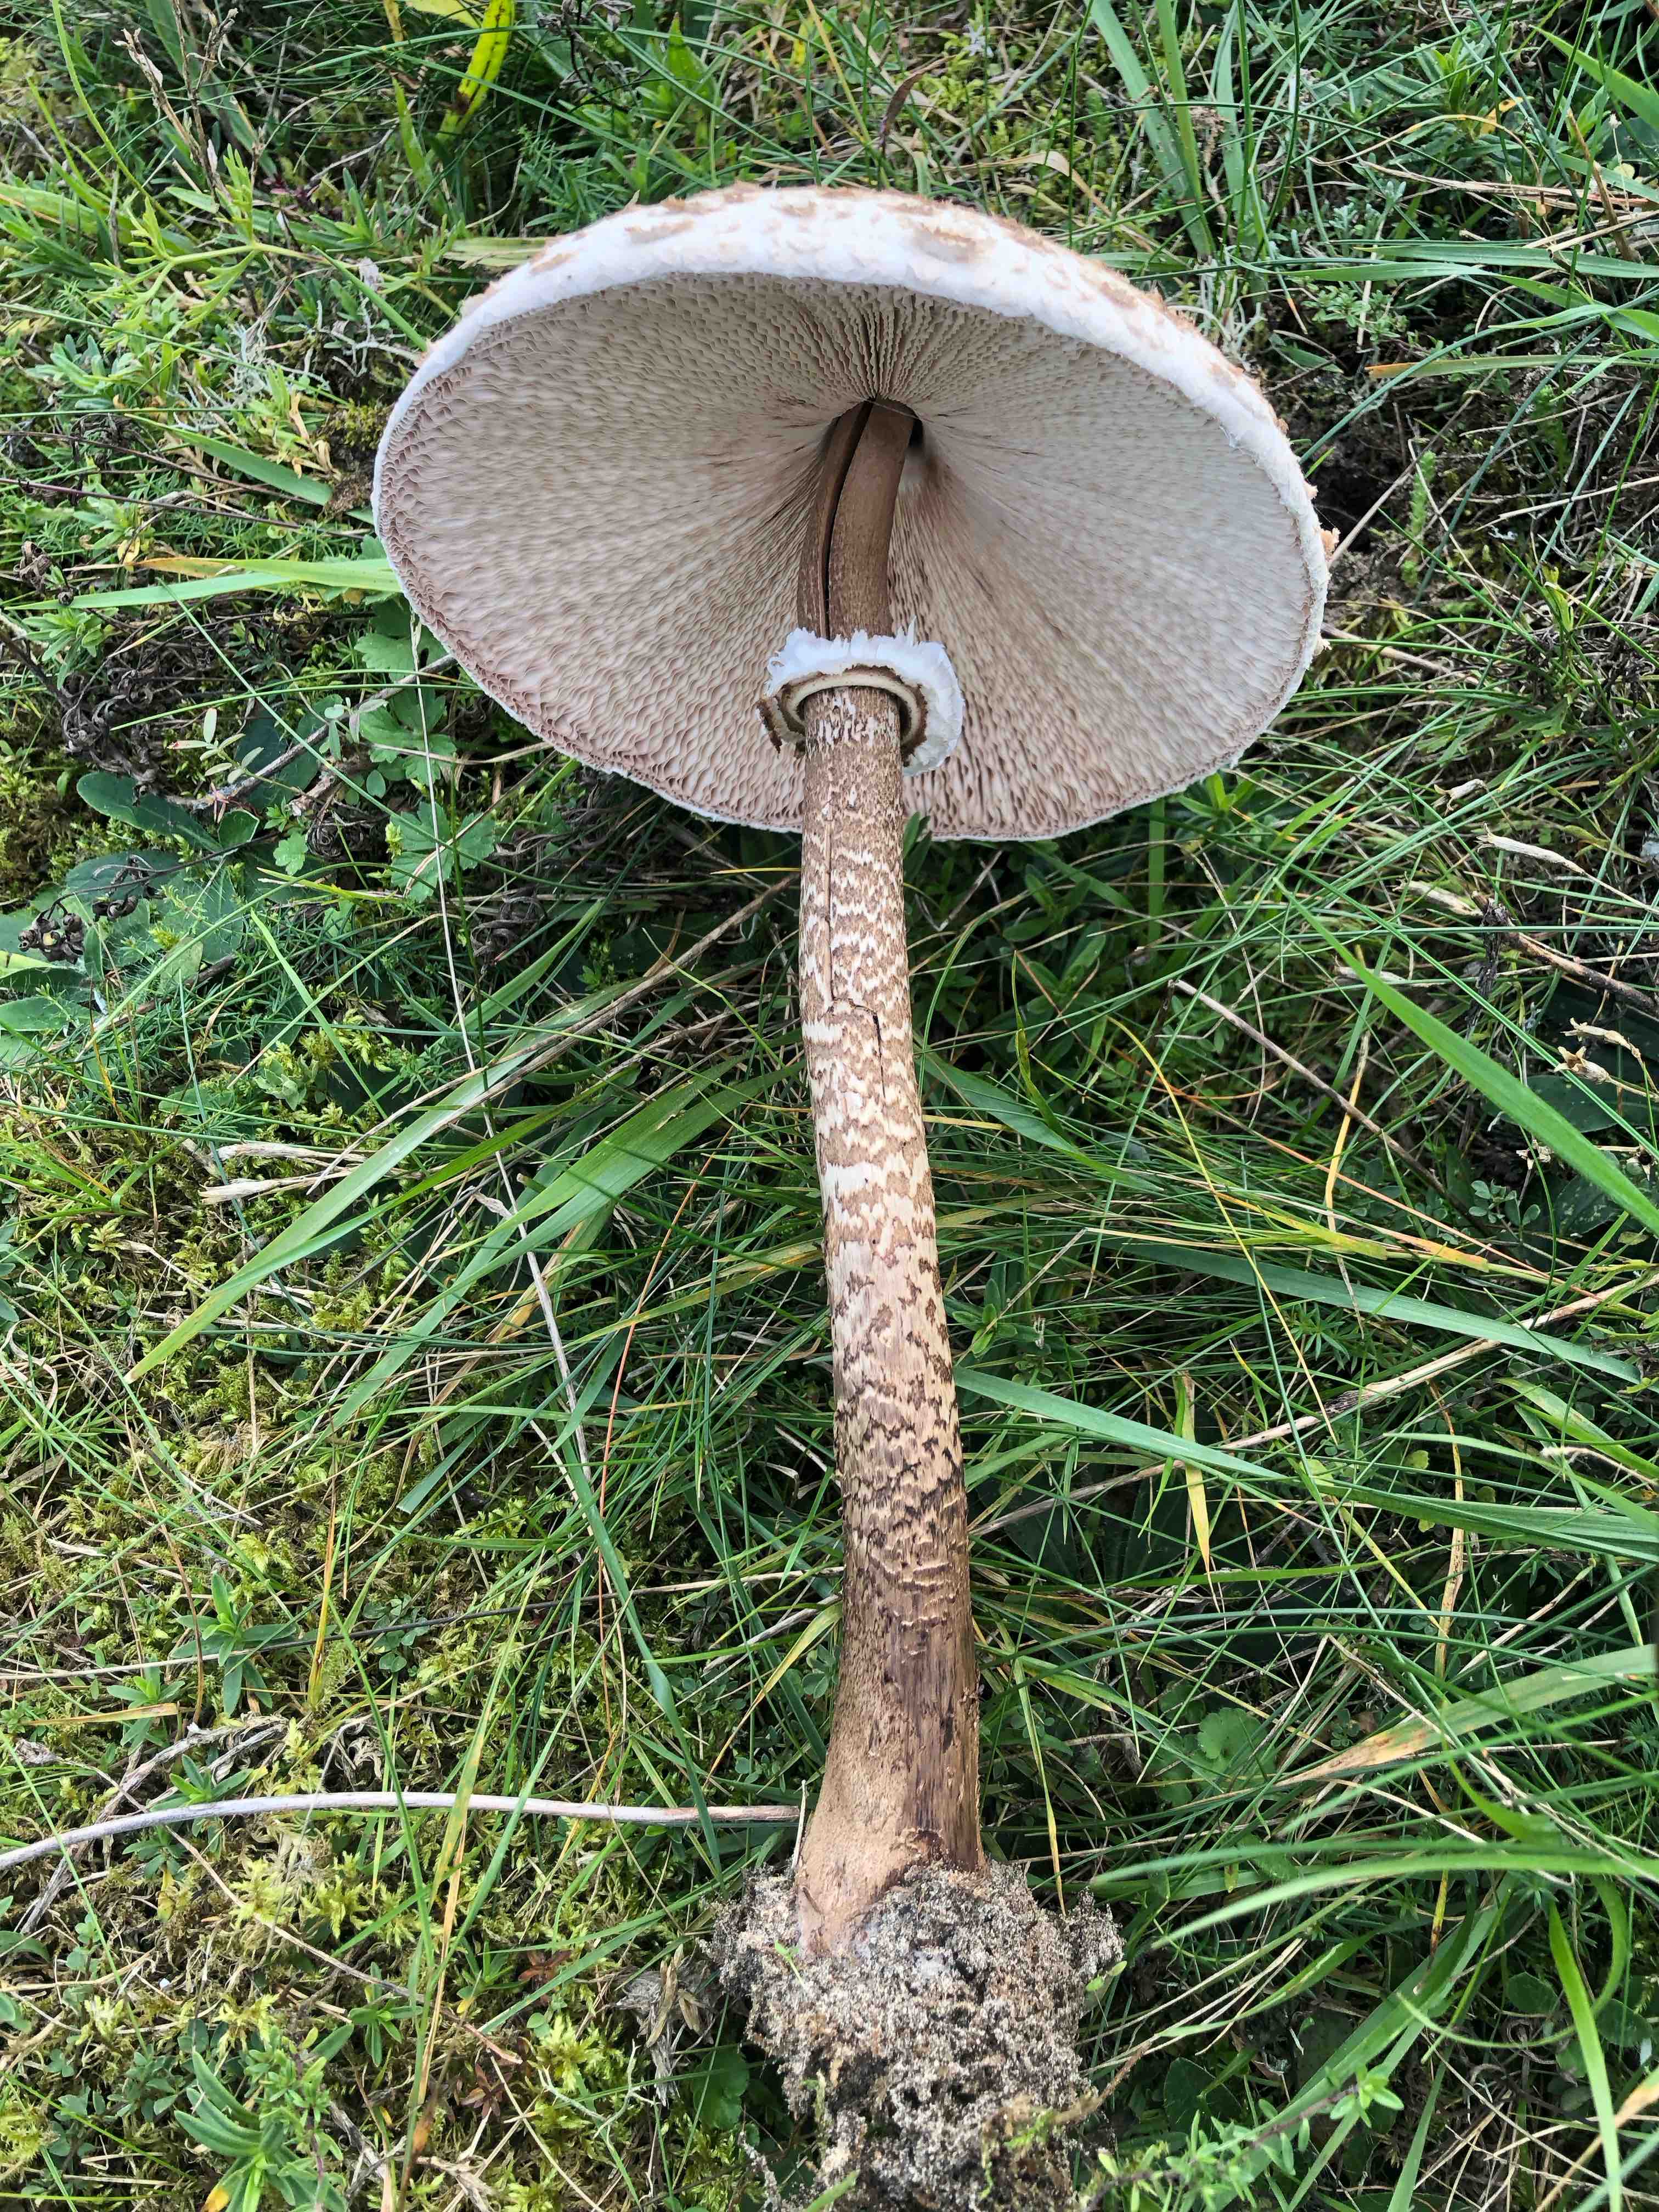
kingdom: Fungi
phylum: Basidiomycota
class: Agaricomycetes
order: Agaricales
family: Agaricaceae
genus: Macrolepiota
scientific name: Macrolepiota procera
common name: stor kæmpeparasolhat
